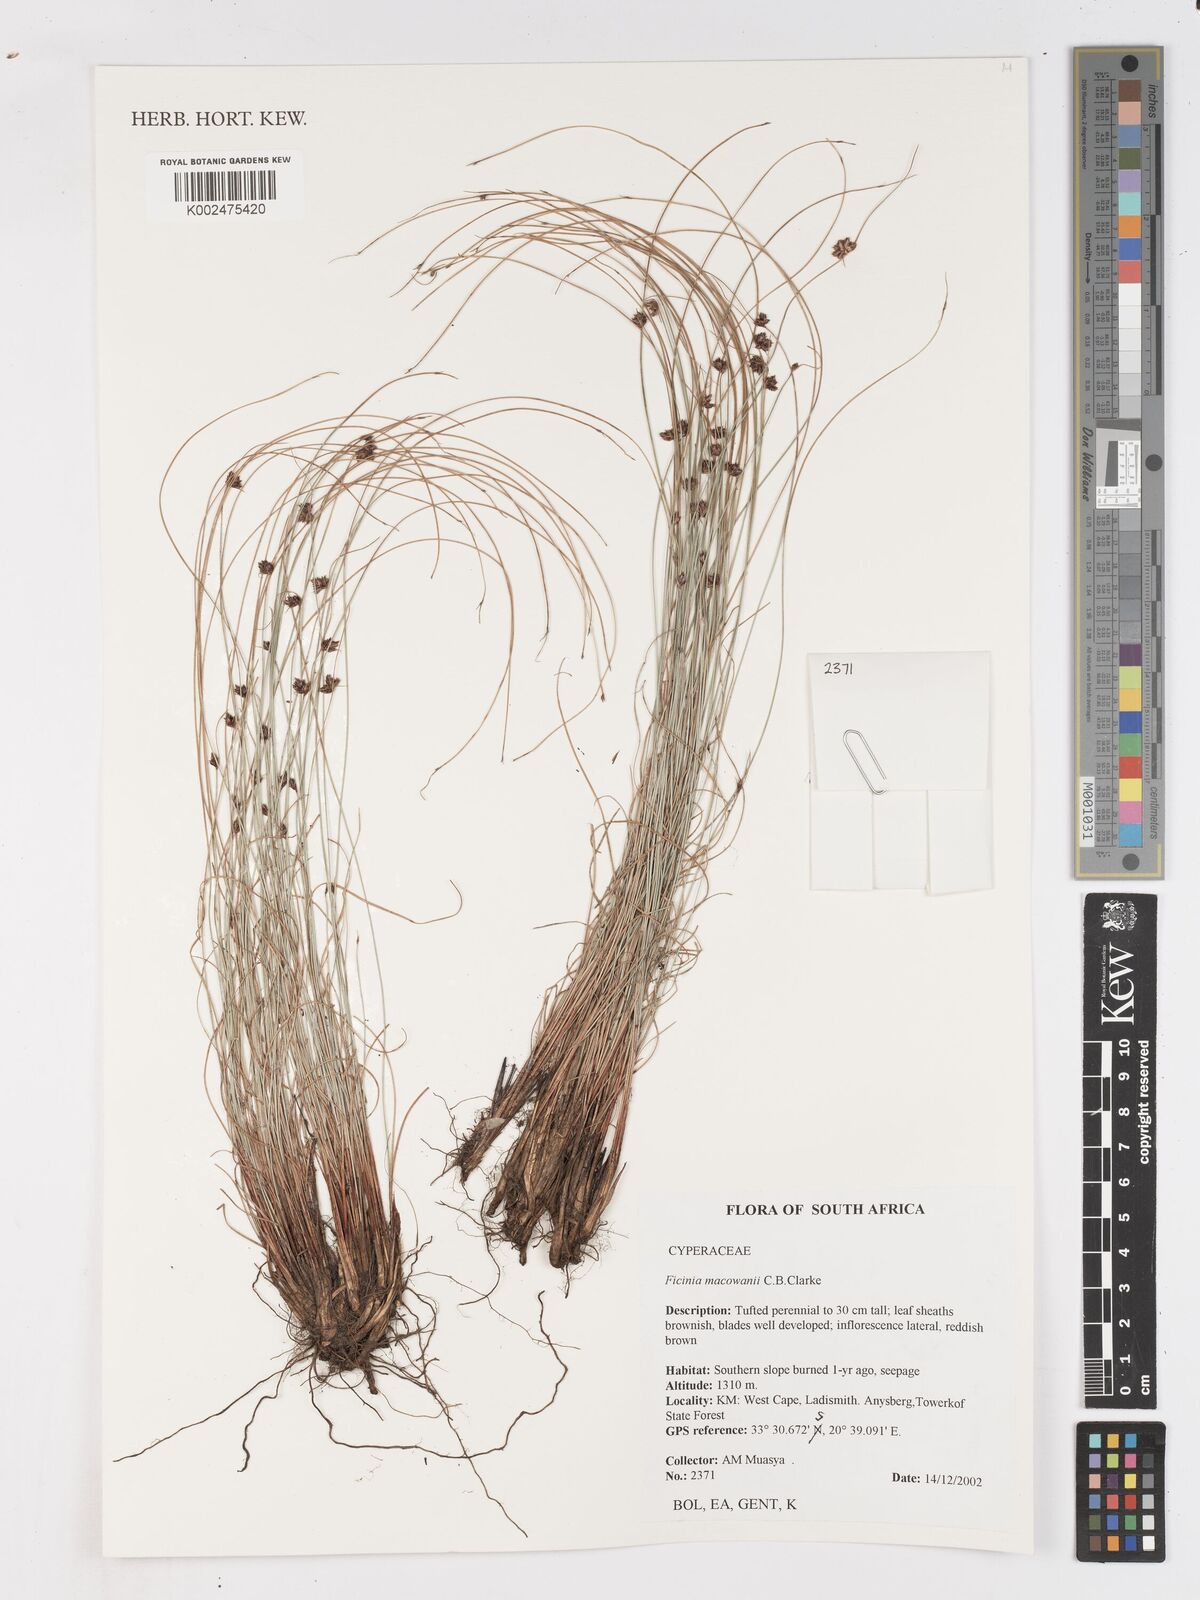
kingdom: Plantae
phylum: Tracheophyta
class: Liliopsida
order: Poales
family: Cyperaceae
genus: Ficinia
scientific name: Ficinia acuminata
